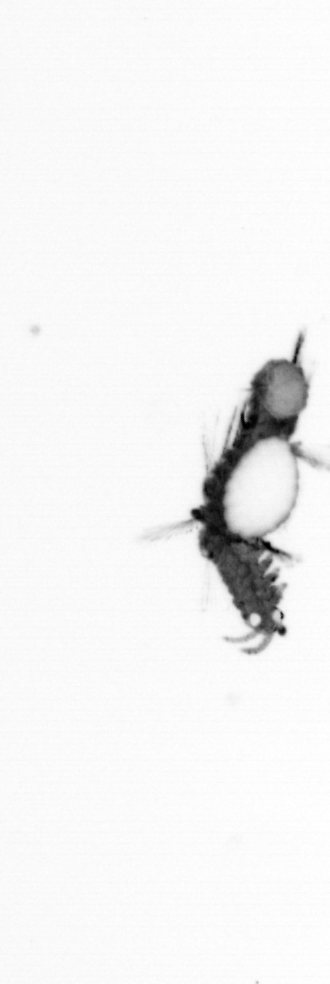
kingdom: Animalia
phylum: Annelida
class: Polychaeta
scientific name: Polychaeta
